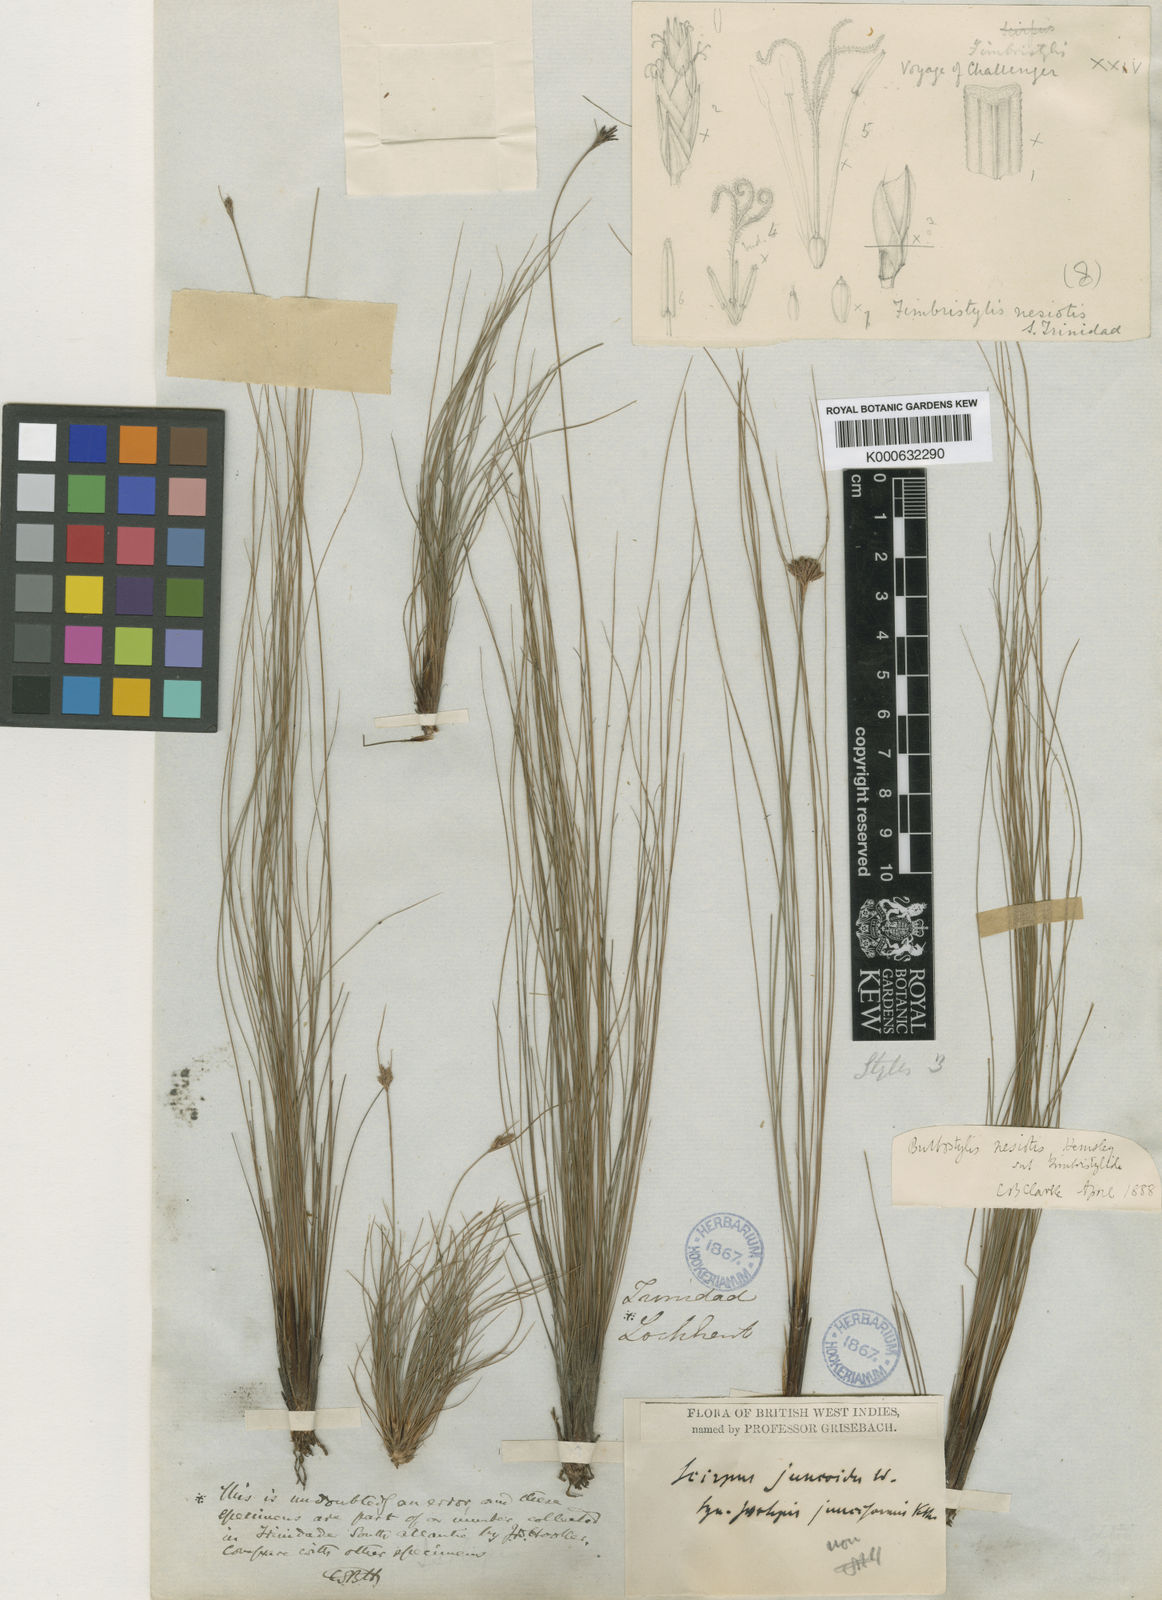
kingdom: Plantae
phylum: Tracheophyta
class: Liliopsida
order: Poales
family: Cyperaceae
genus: Bulbostylis
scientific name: Bulbostylis nesiotis
